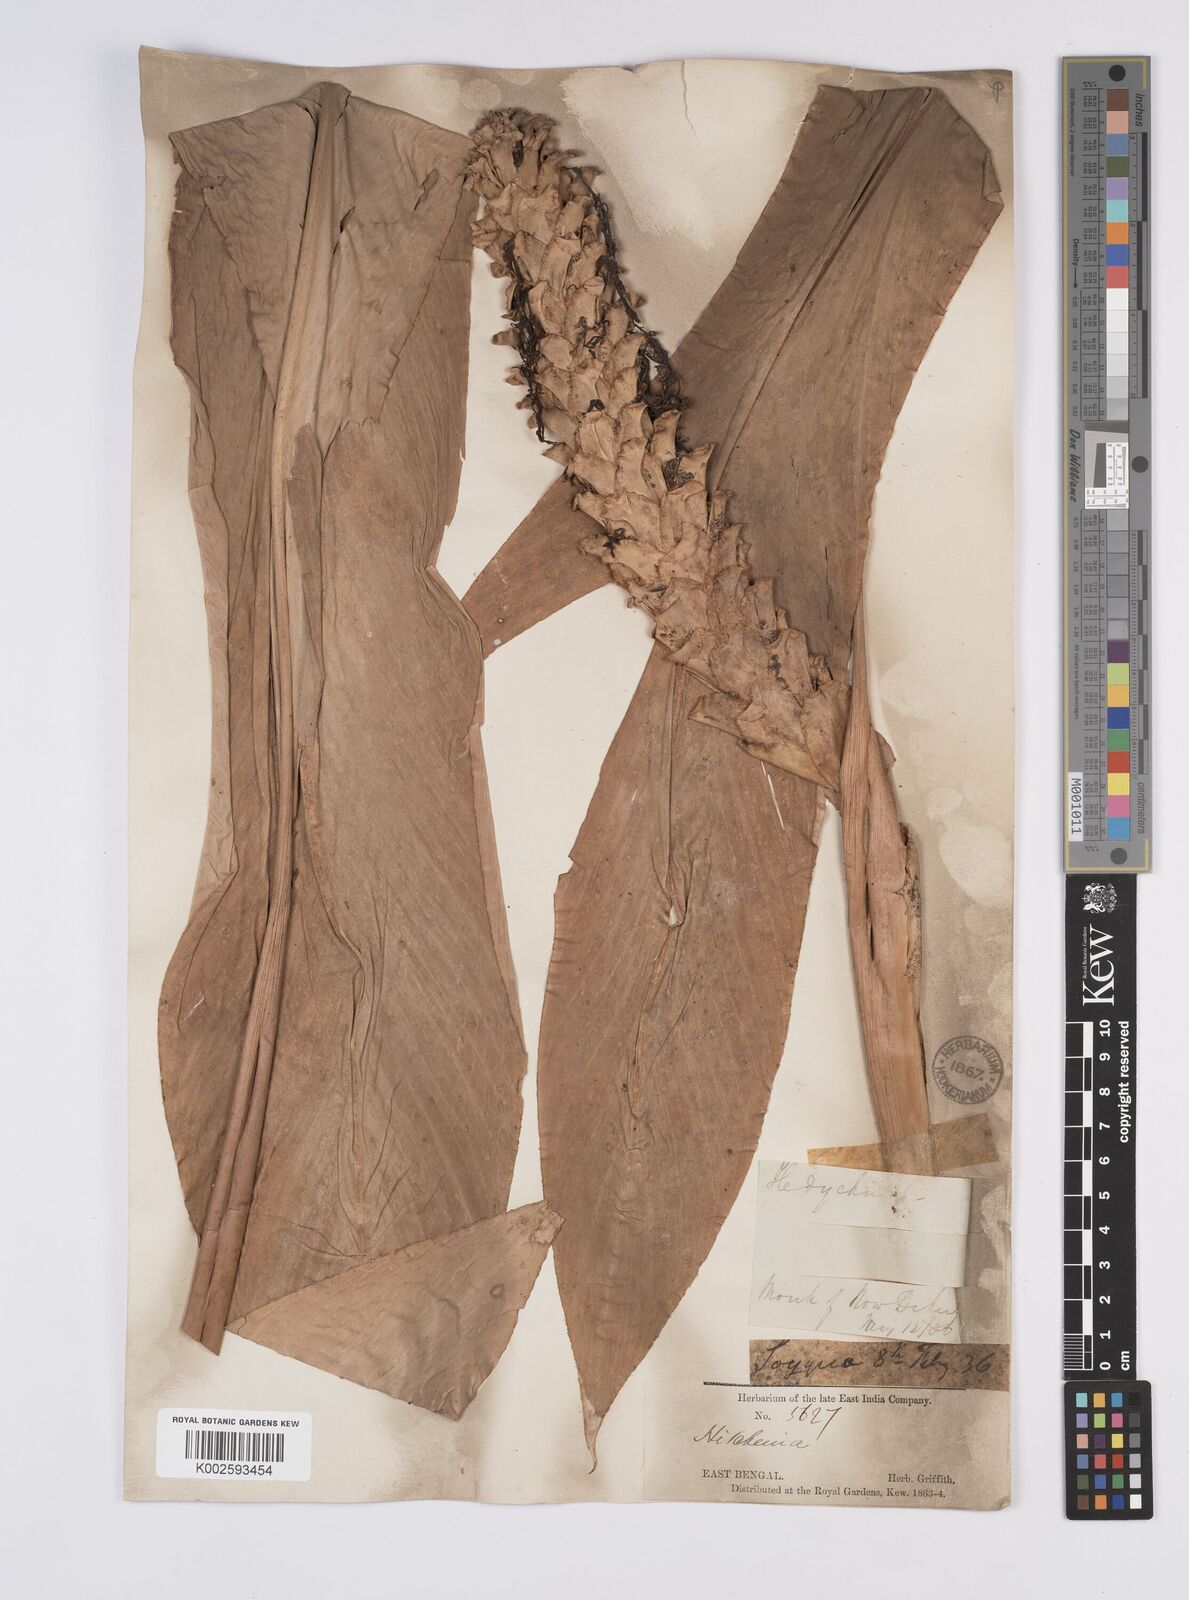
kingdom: Plantae
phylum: Tracheophyta
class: Liliopsida
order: Zingiberales
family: Zingiberaceae
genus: Larsenianthus
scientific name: Larsenianthus careyanus
